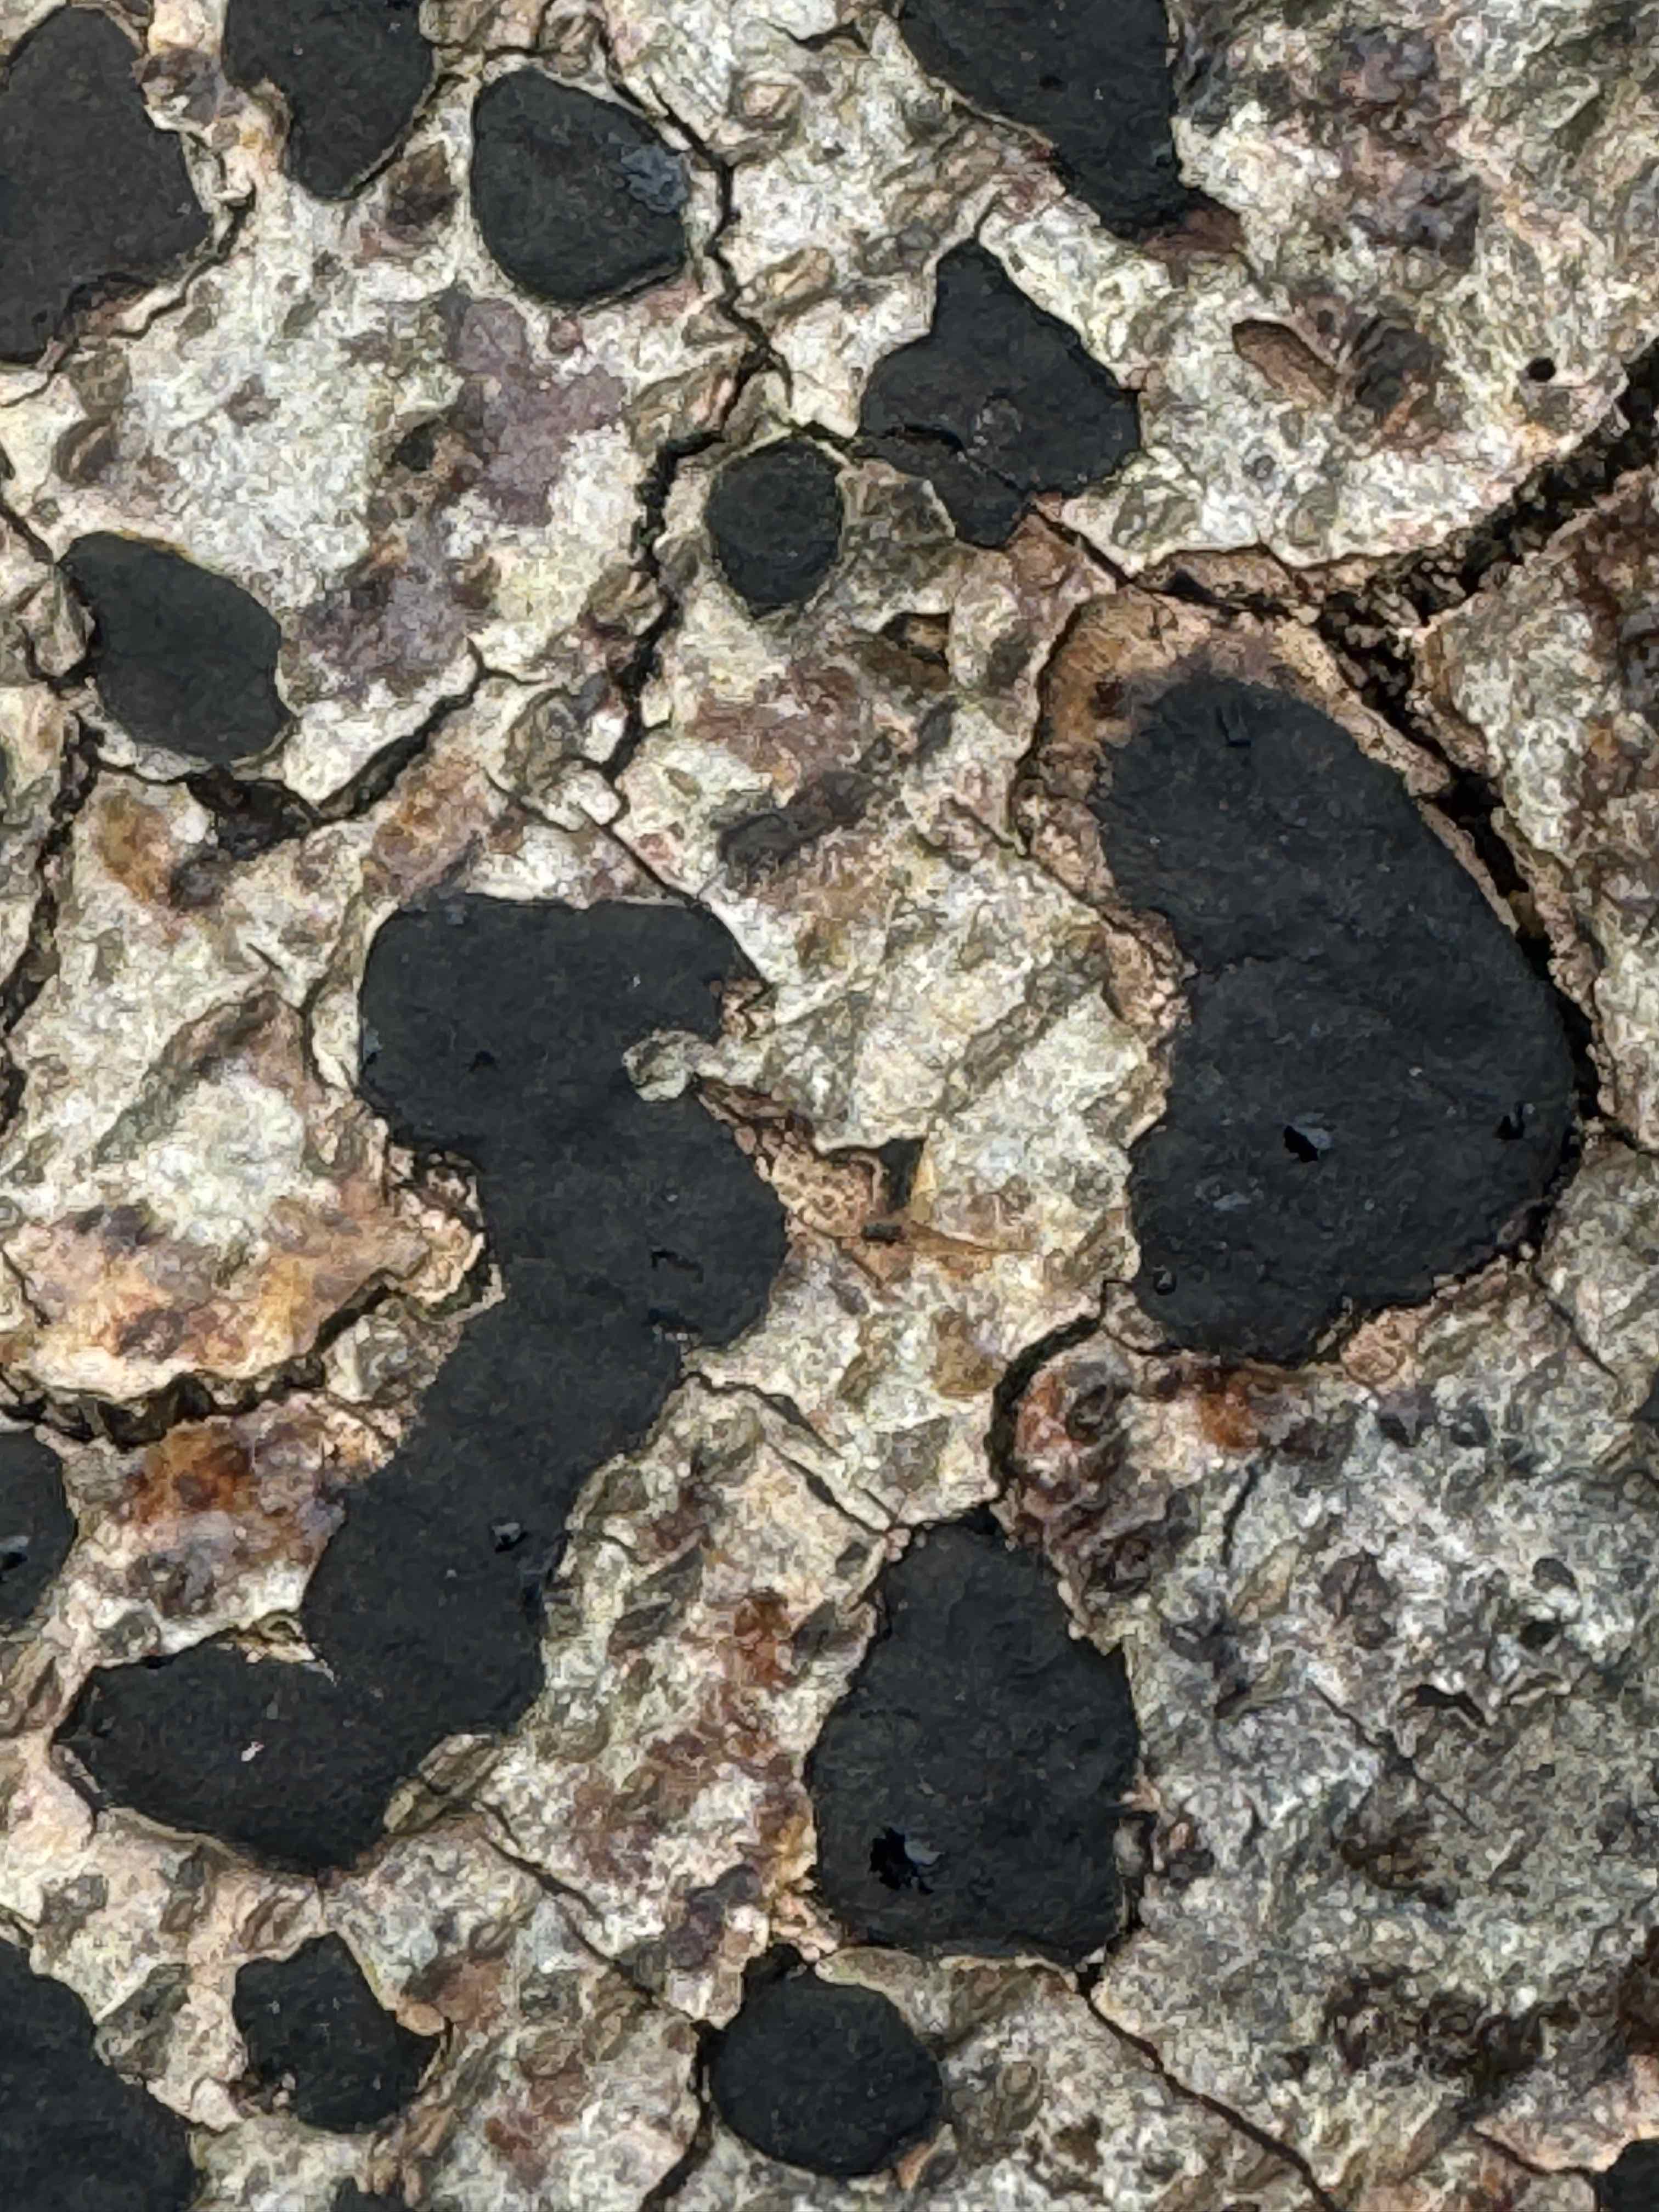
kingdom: Fungi
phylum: Ascomycota
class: Sordariomycetes
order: Xylariales
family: Graphostromataceae
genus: Biscogniauxia
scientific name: Biscogniauxia nummularia
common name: bøge-kulskive
